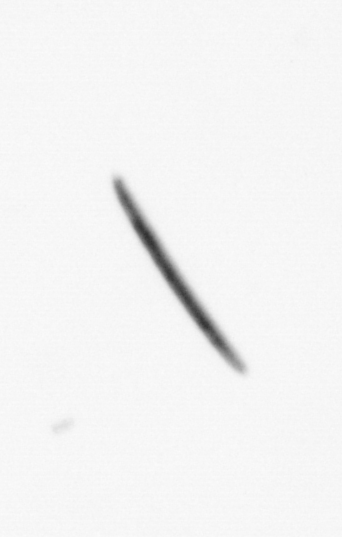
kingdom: Bacteria
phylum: Cyanobacteria
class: Cyanobacteriia
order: Cyanobacteriales
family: Microcoleaceae
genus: Trichodesmium
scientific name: Trichodesmium
